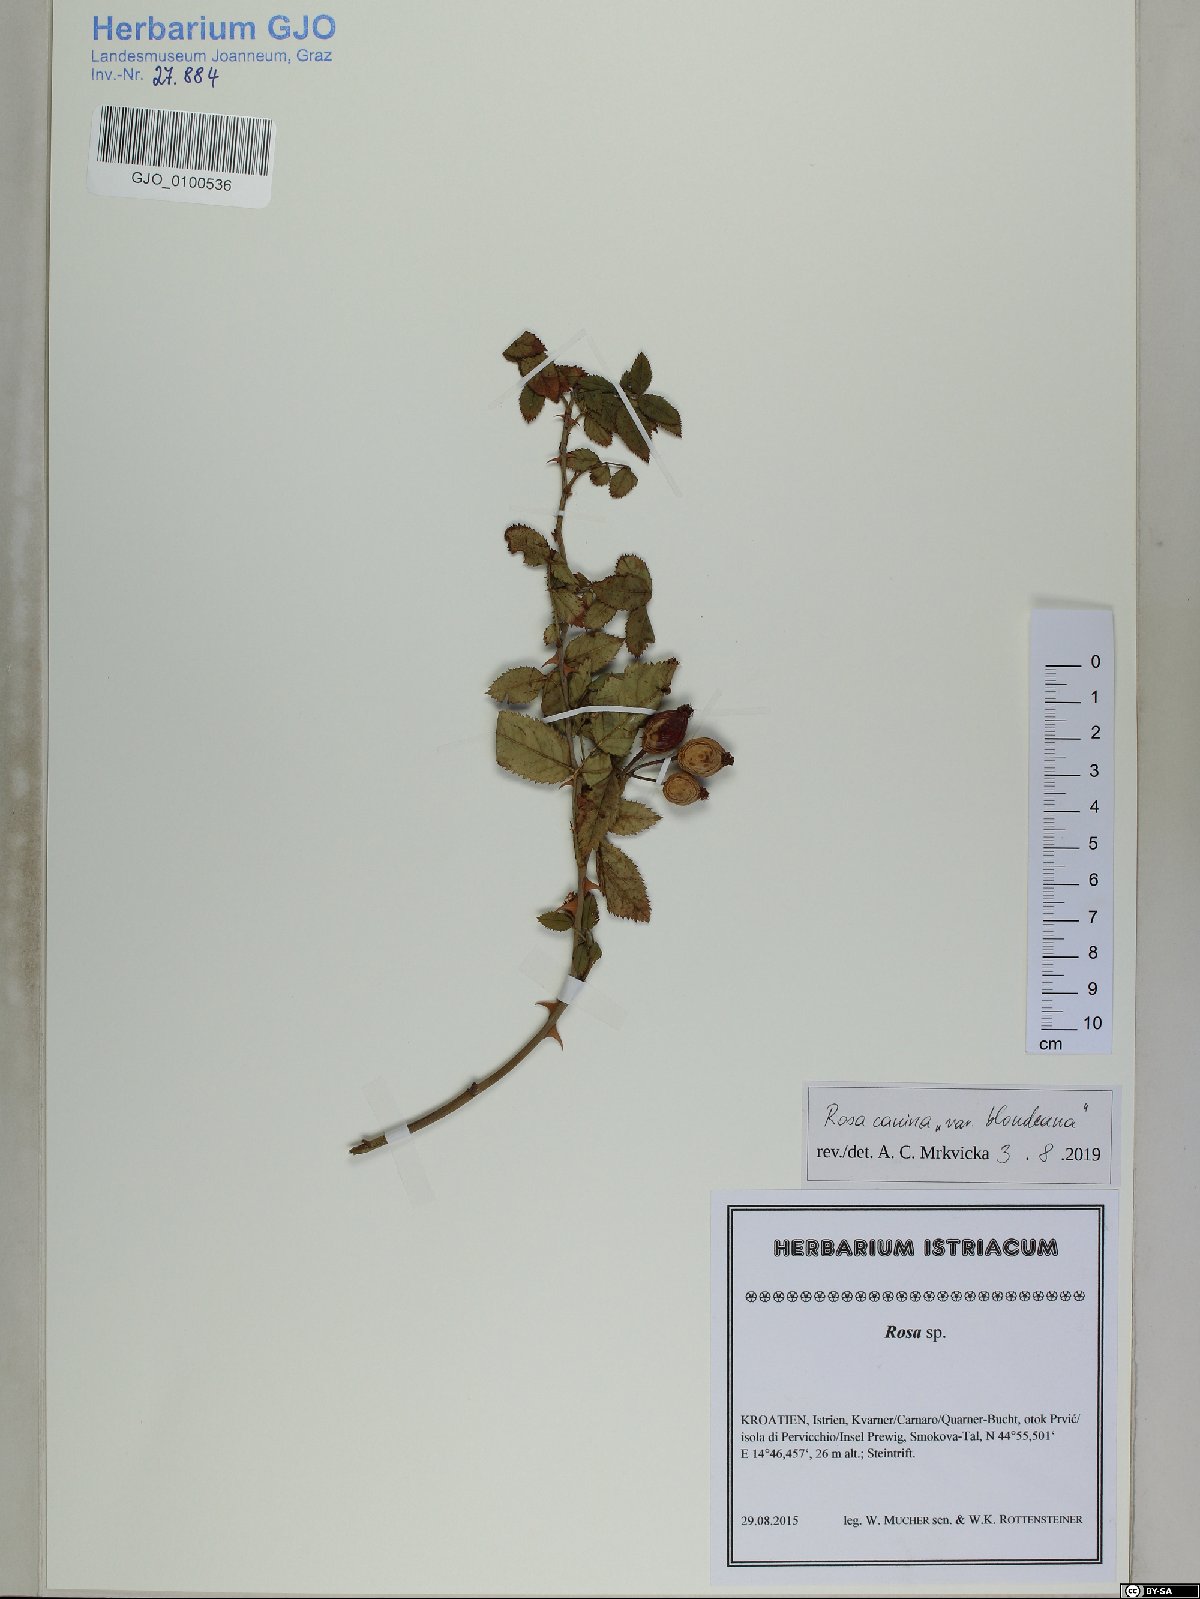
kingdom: Plantae
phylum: Tracheophyta
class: Magnoliopsida
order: Rosales
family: Rosaceae
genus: Rosa
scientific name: Rosa canina
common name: Dog rose
